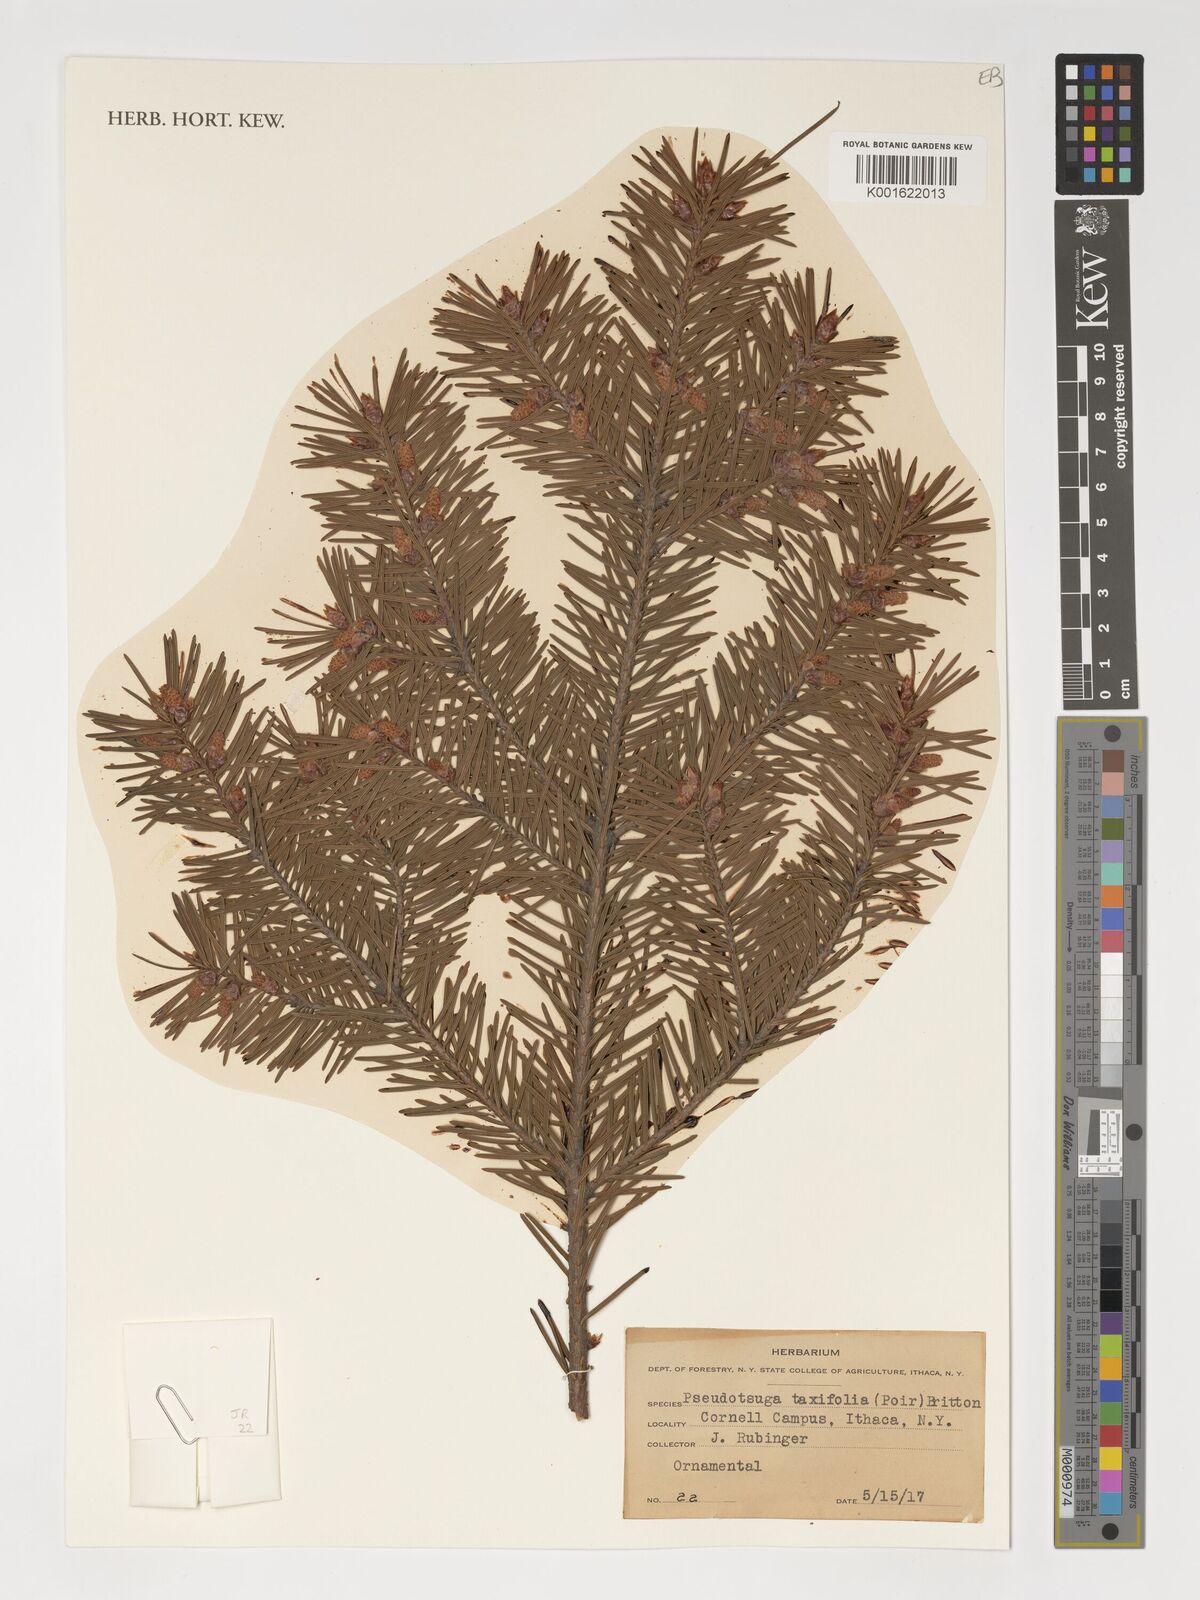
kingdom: Plantae
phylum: Tracheophyta
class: Pinopsida
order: Pinales
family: Pinaceae
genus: Pseudotsuga
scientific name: Pseudotsuga menziesii
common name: Douglas fir
